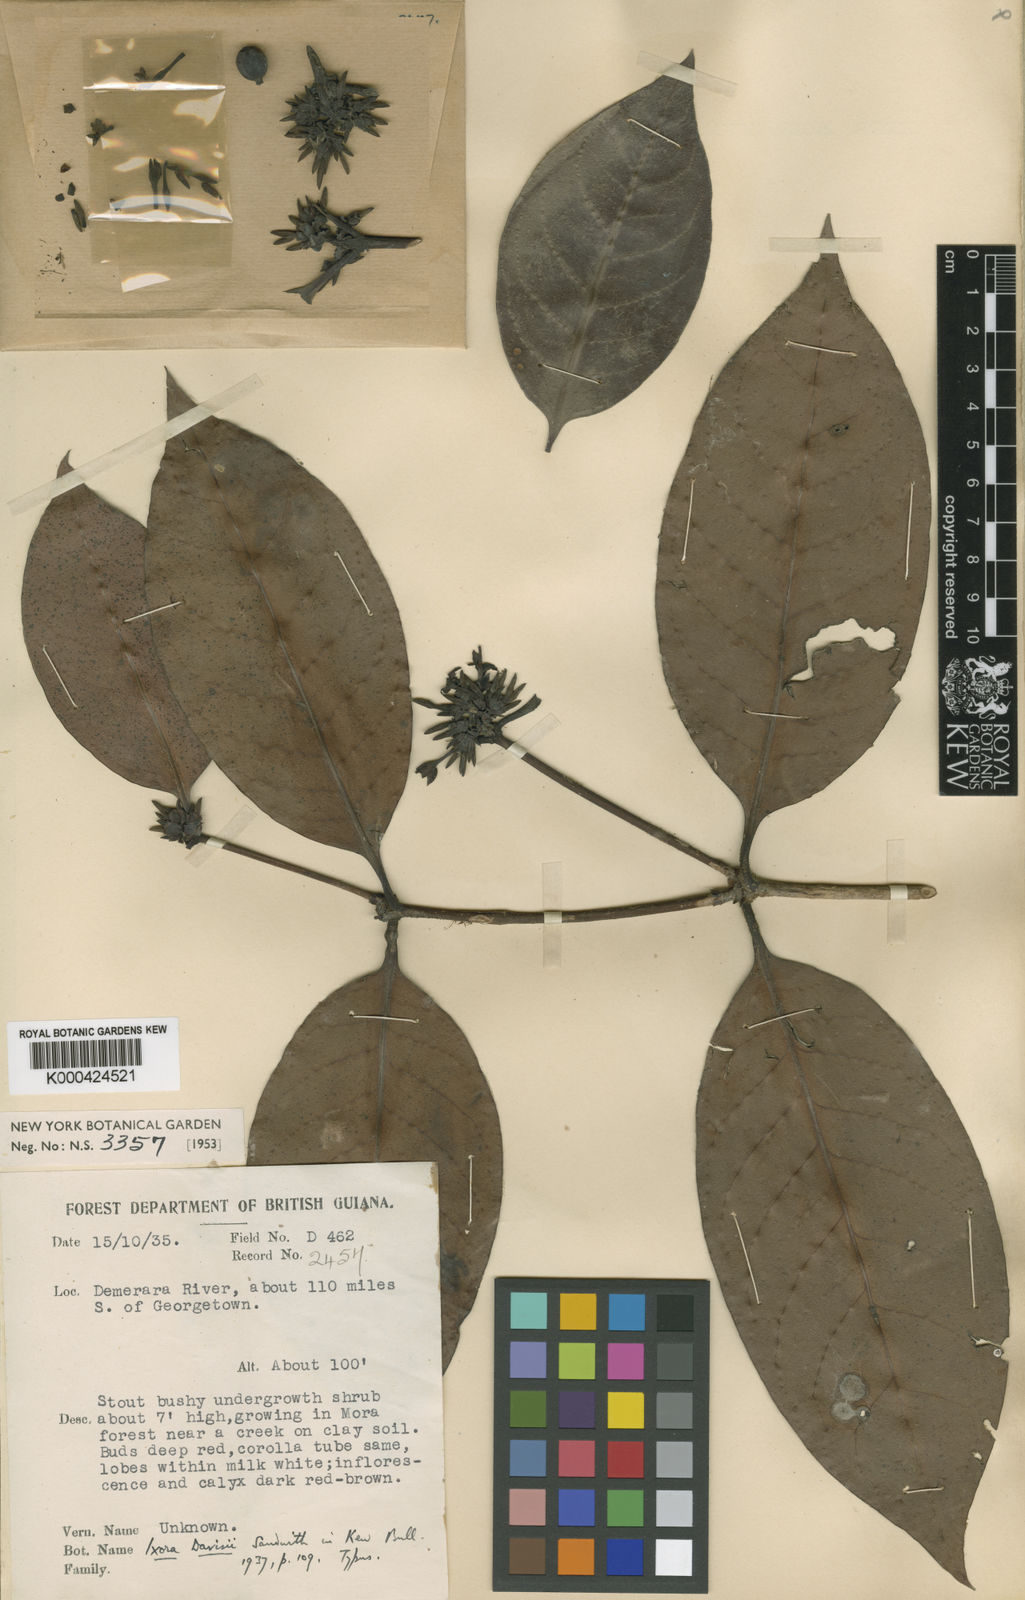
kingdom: Plantae
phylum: Tracheophyta
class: Magnoliopsida
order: Gentianales
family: Rubiaceae
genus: Ixora
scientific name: Ixora davisii
